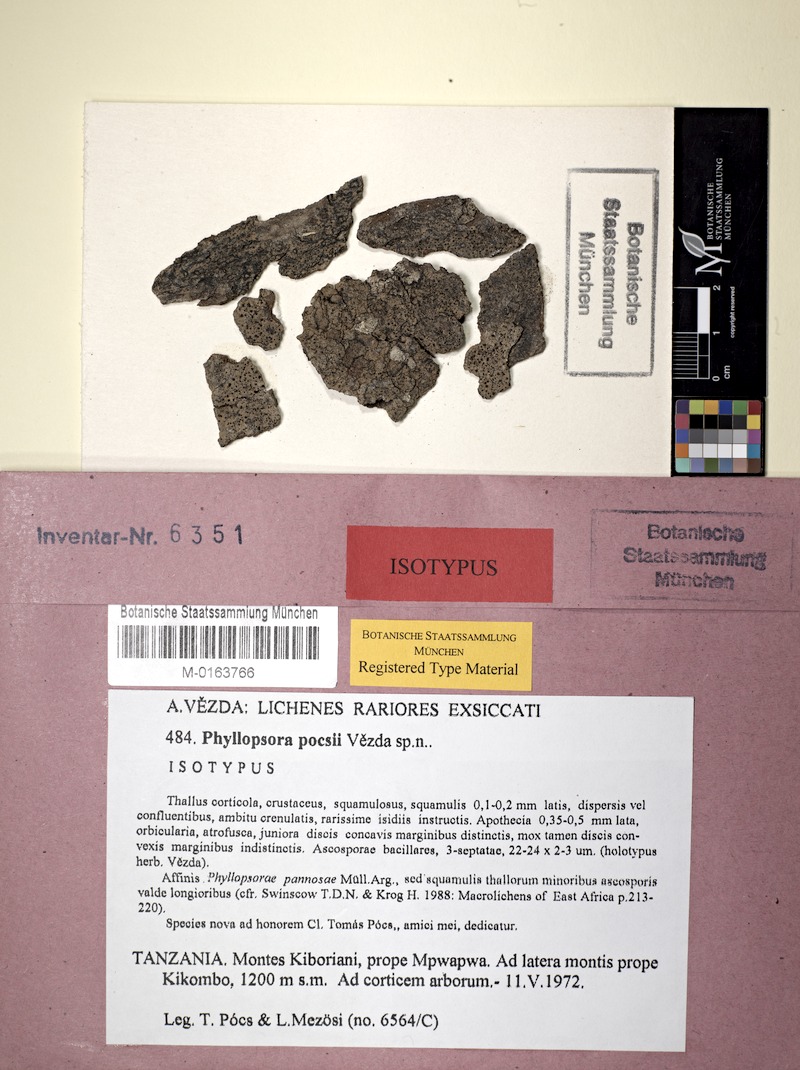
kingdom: Fungi
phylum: Ascomycota
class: Lecanoromycetes
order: Lecanorales
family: Ramalinaceae
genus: Phyllopsora
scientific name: Phyllopsora pocsii
